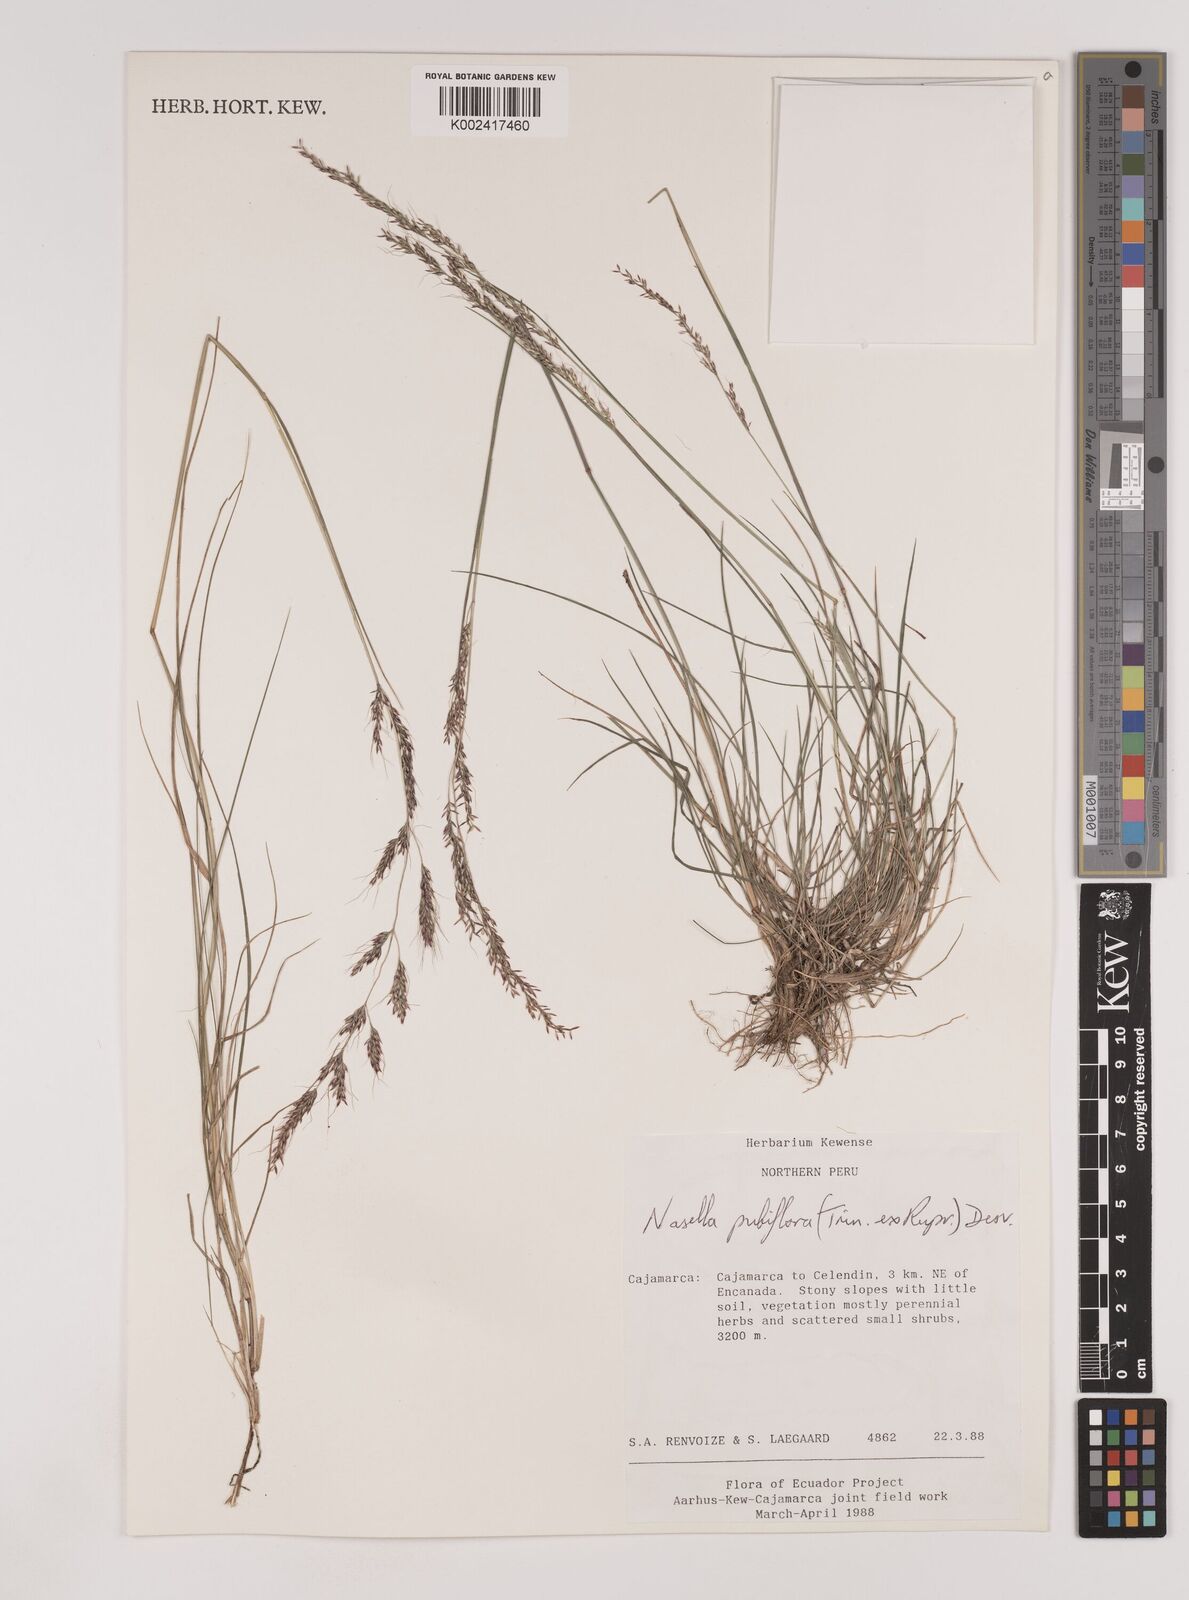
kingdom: Plantae
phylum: Tracheophyta
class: Liliopsida
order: Poales
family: Poaceae
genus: Nassella
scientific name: Nassella meyeniana
